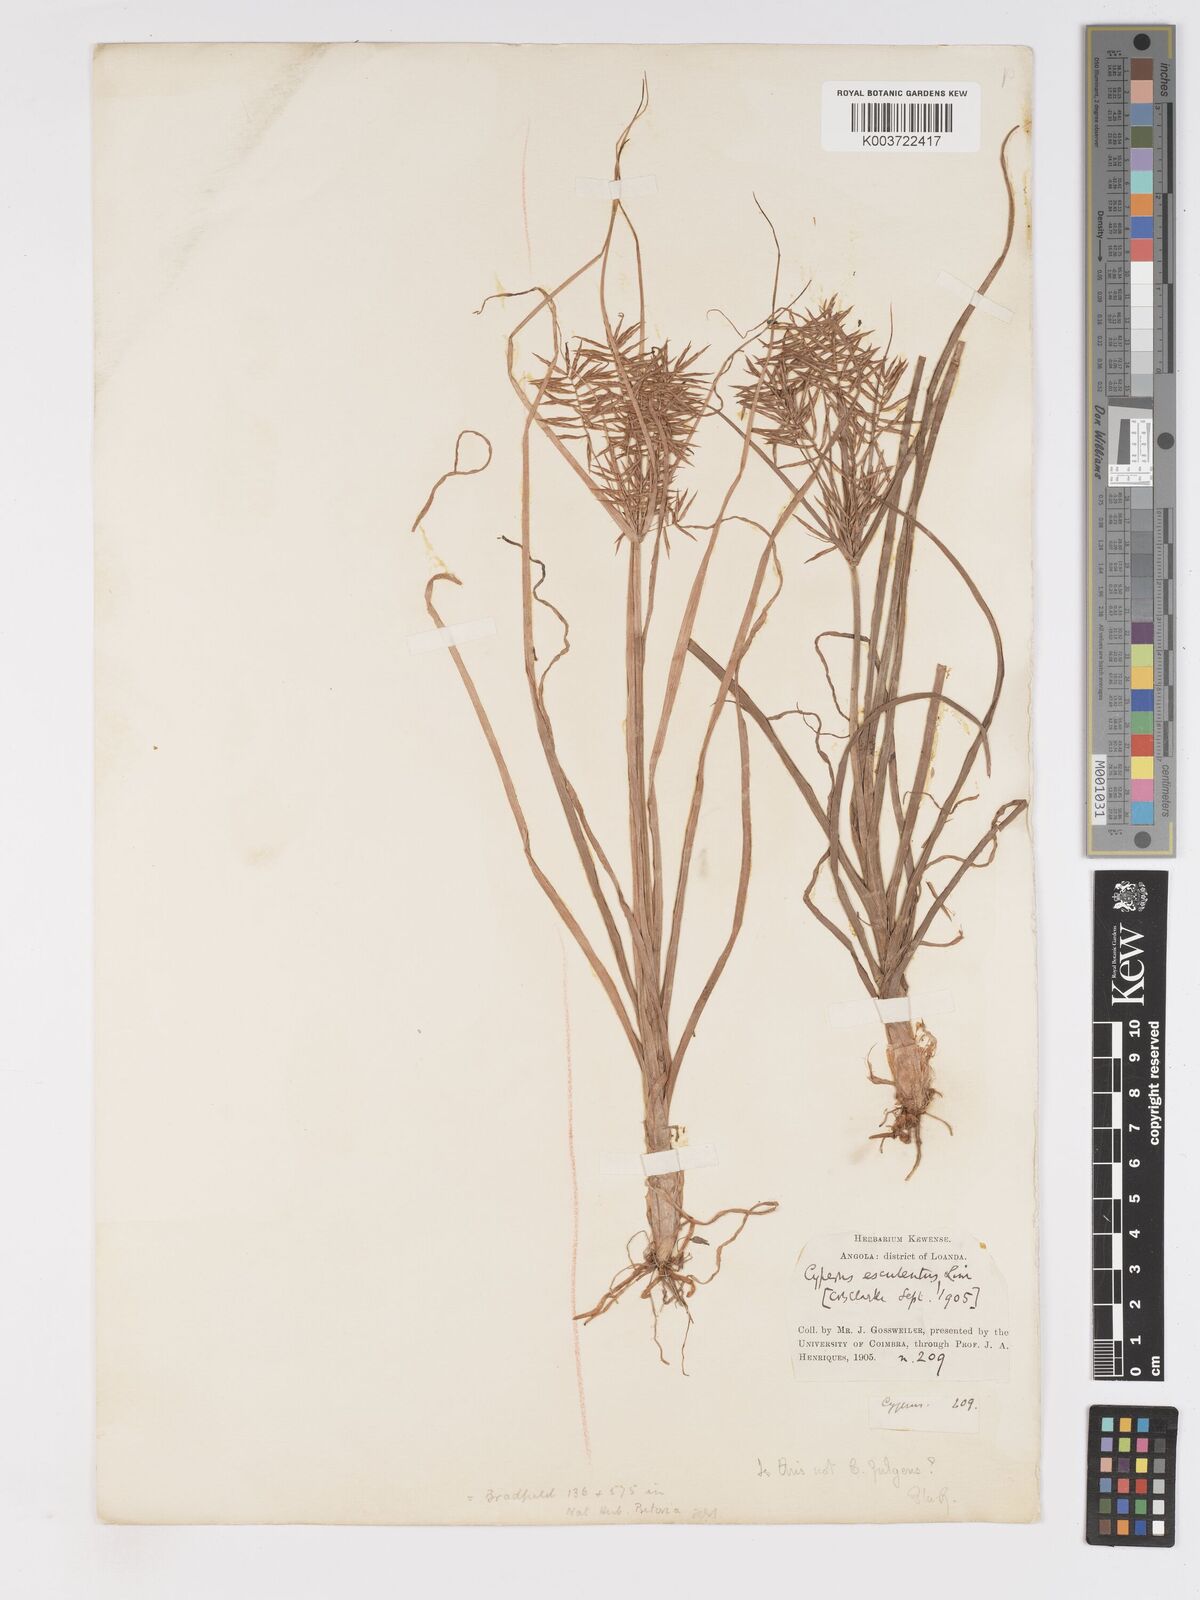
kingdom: Plantae
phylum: Tracheophyta
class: Liliopsida
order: Poales
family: Cyperaceae
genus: Cyperus
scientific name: Cyperus callistus
